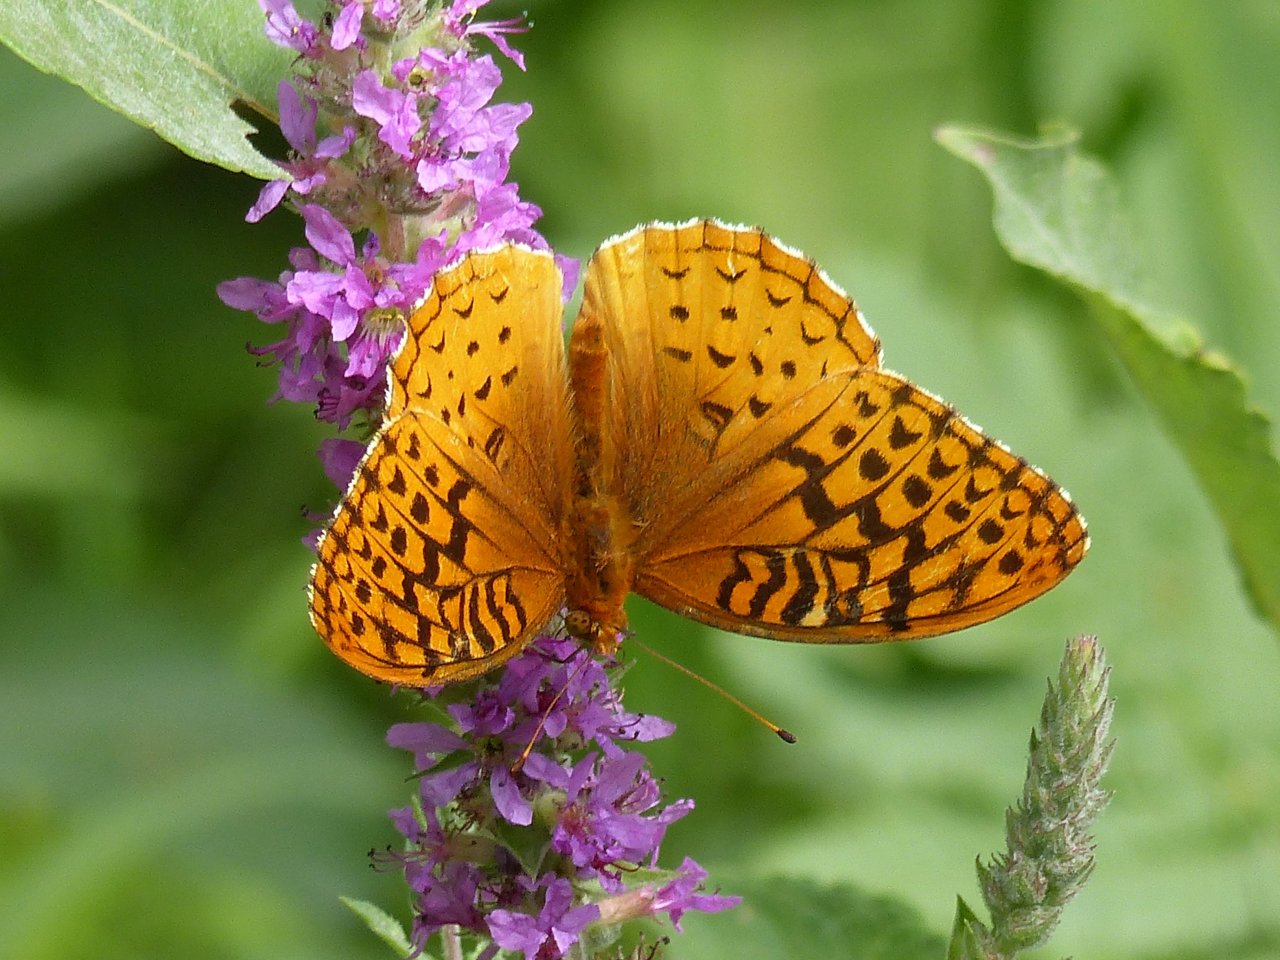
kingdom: Animalia
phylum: Arthropoda
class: Insecta
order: Lepidoptera
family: Nymphalidae
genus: Speyeria
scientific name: Speyeria cybele
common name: Great Spangled Fritillary
